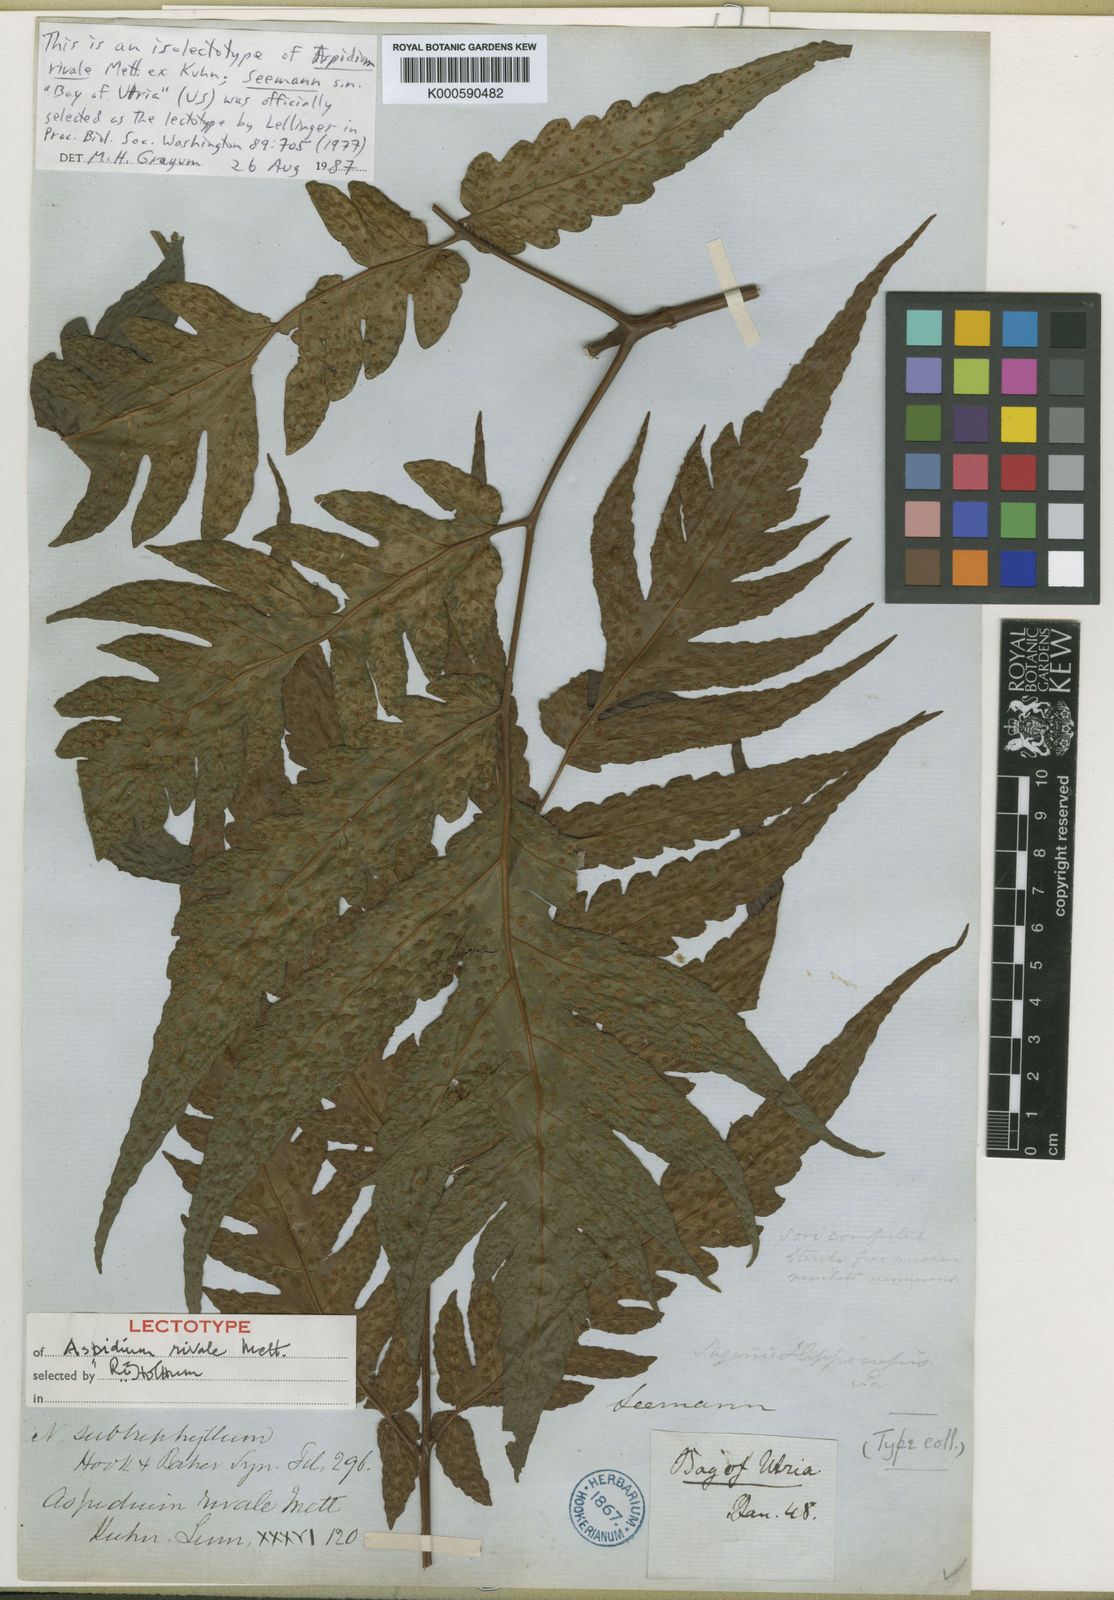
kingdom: Plantae
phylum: Tracheophyta
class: Polypodiopsida
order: Polypodiales
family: Tectariaceae
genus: Tectaria
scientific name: Tectaria rivalis
